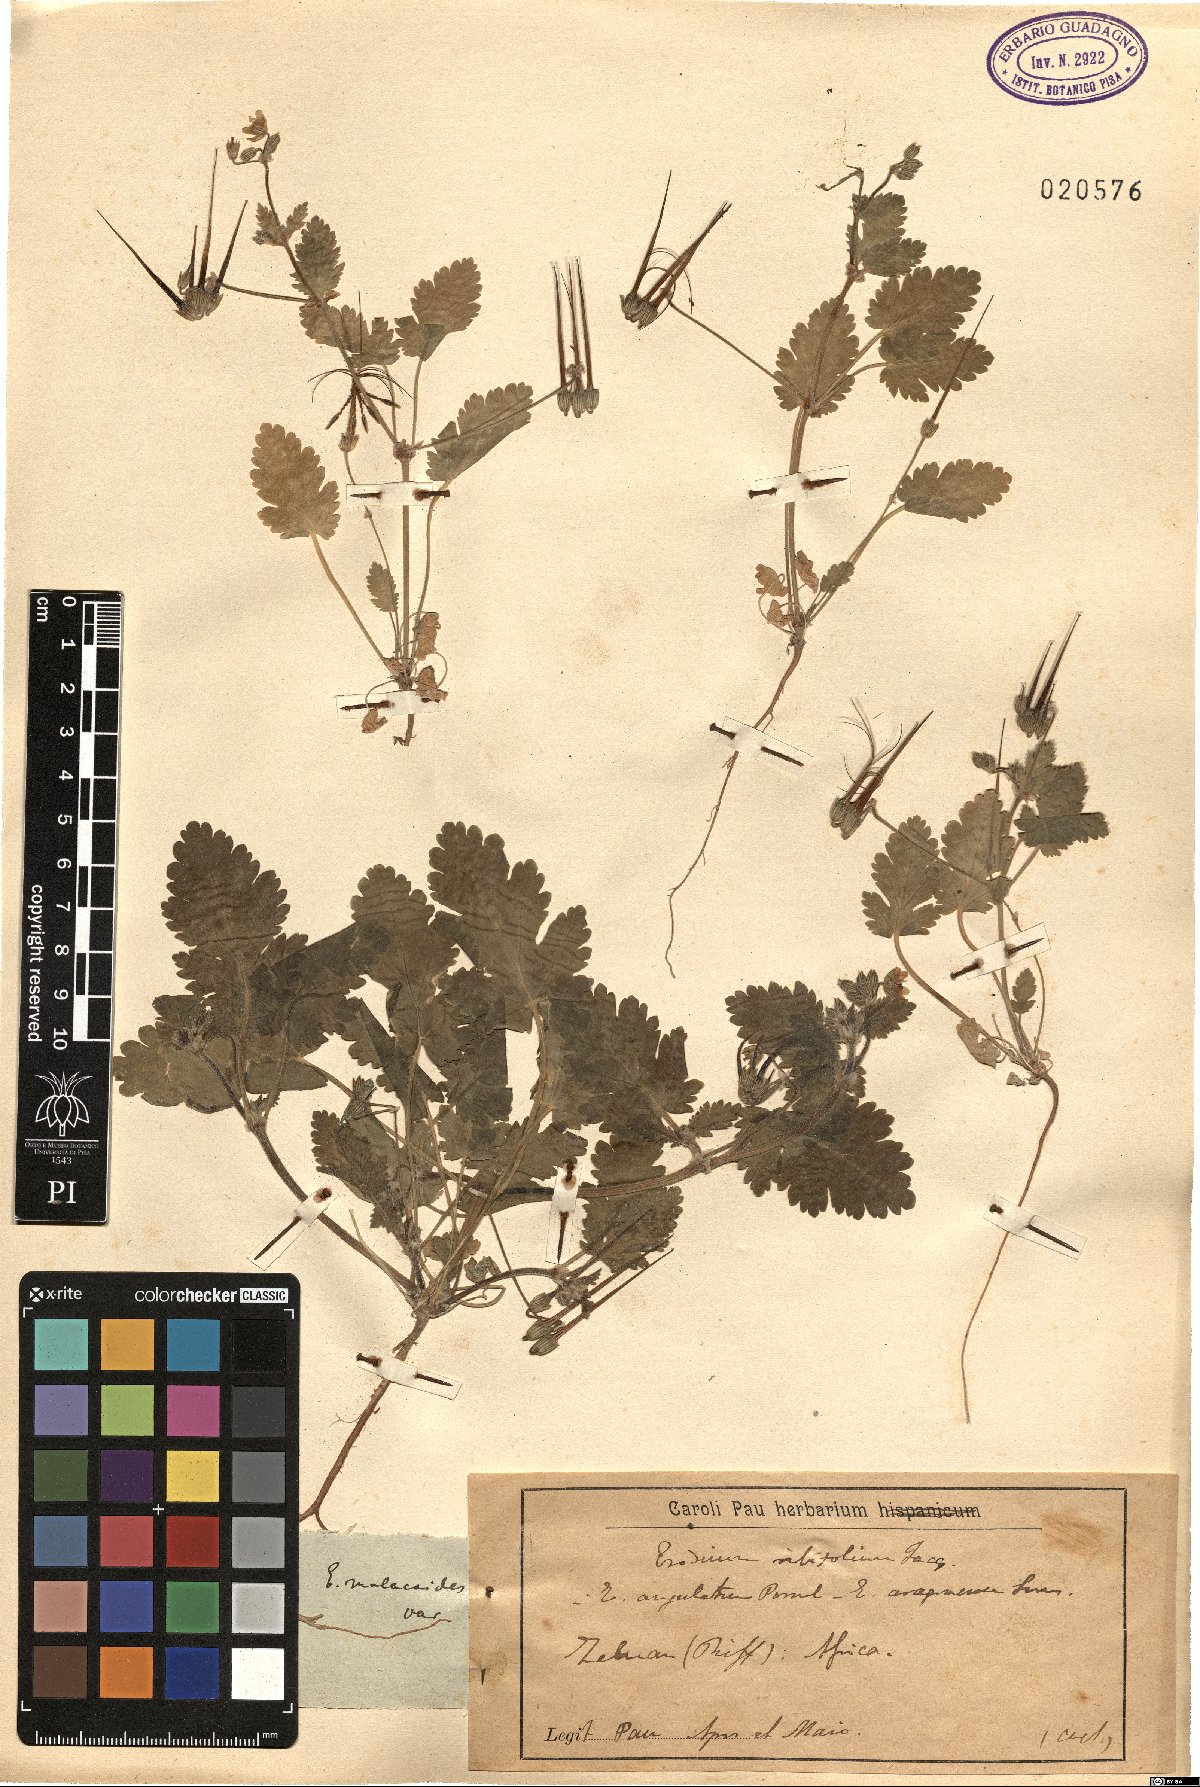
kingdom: Plantae
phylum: Tracheophyta
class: Magnoliopsida
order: Geraniales
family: Geraniaceae
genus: Erodium
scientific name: Erodium malacoides
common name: Soft stork's-bill
